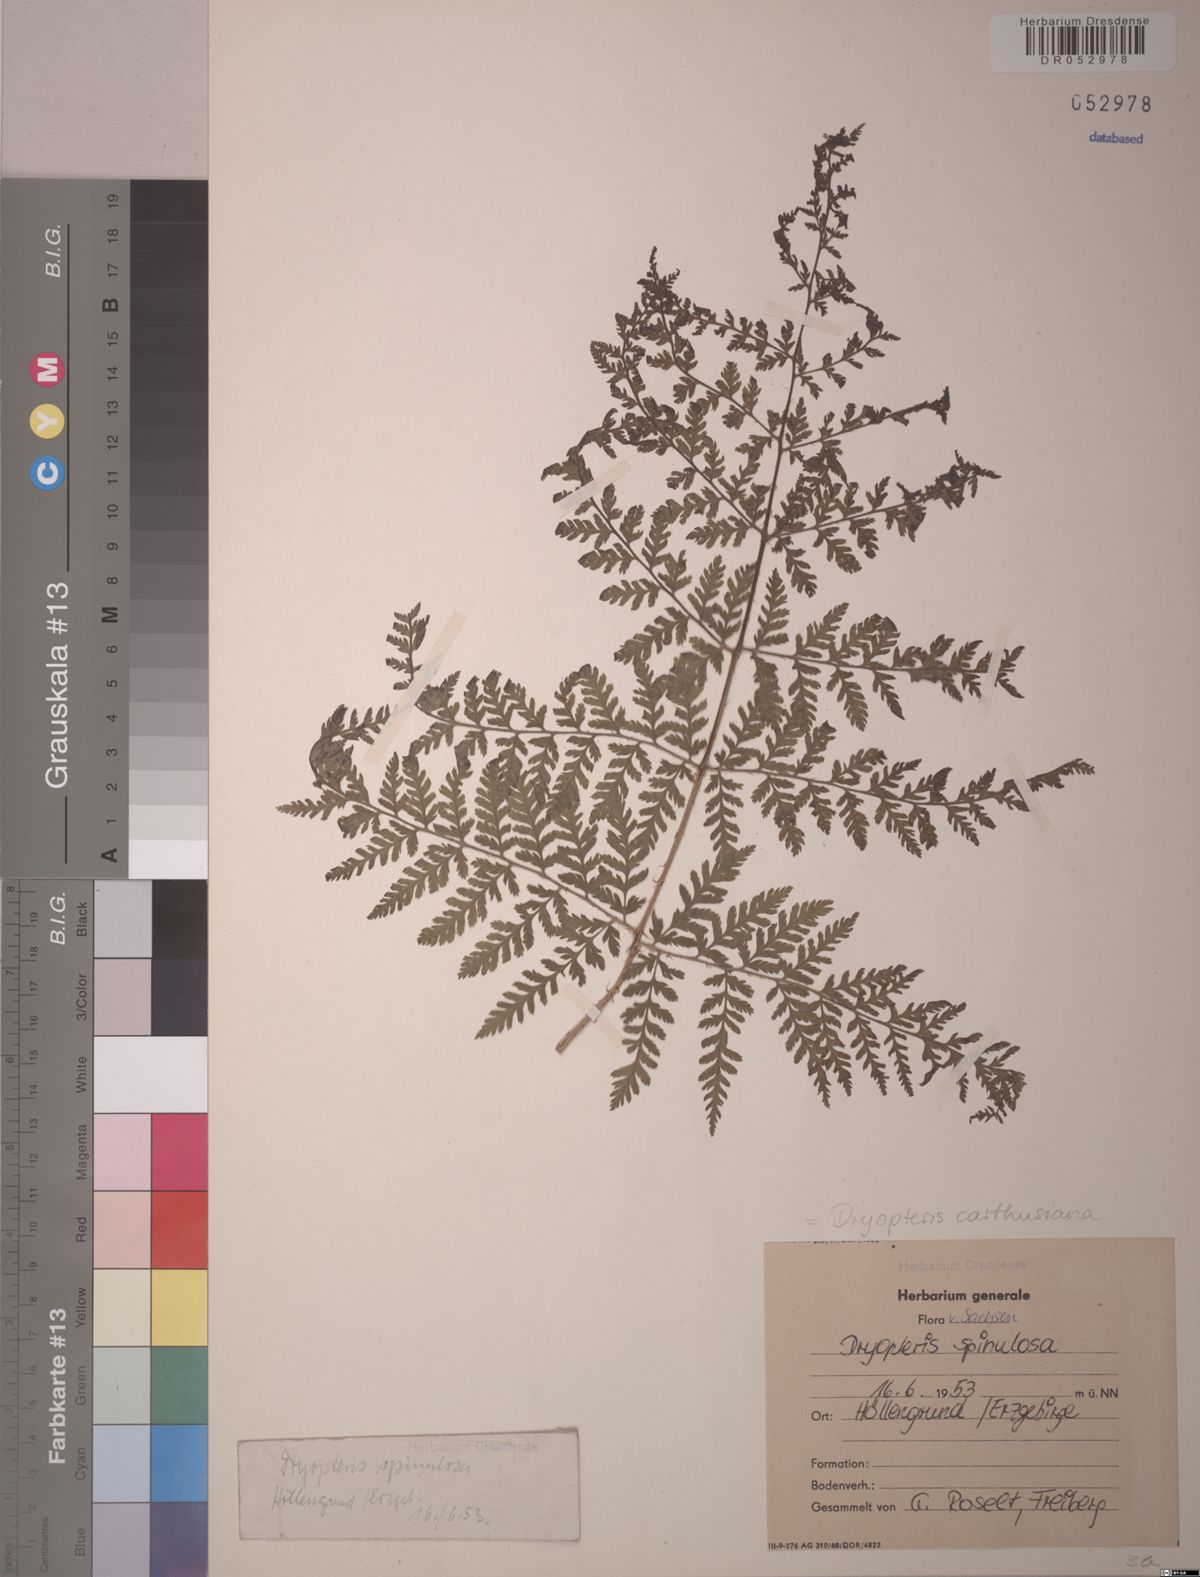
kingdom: Plantae
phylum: Tracheophyta
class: Polypodiopsida
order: Polypodiales
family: Dryopteridaceae
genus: Dryopteris
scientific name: Dryopteris carthusiana
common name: Narrow buckler-fern
